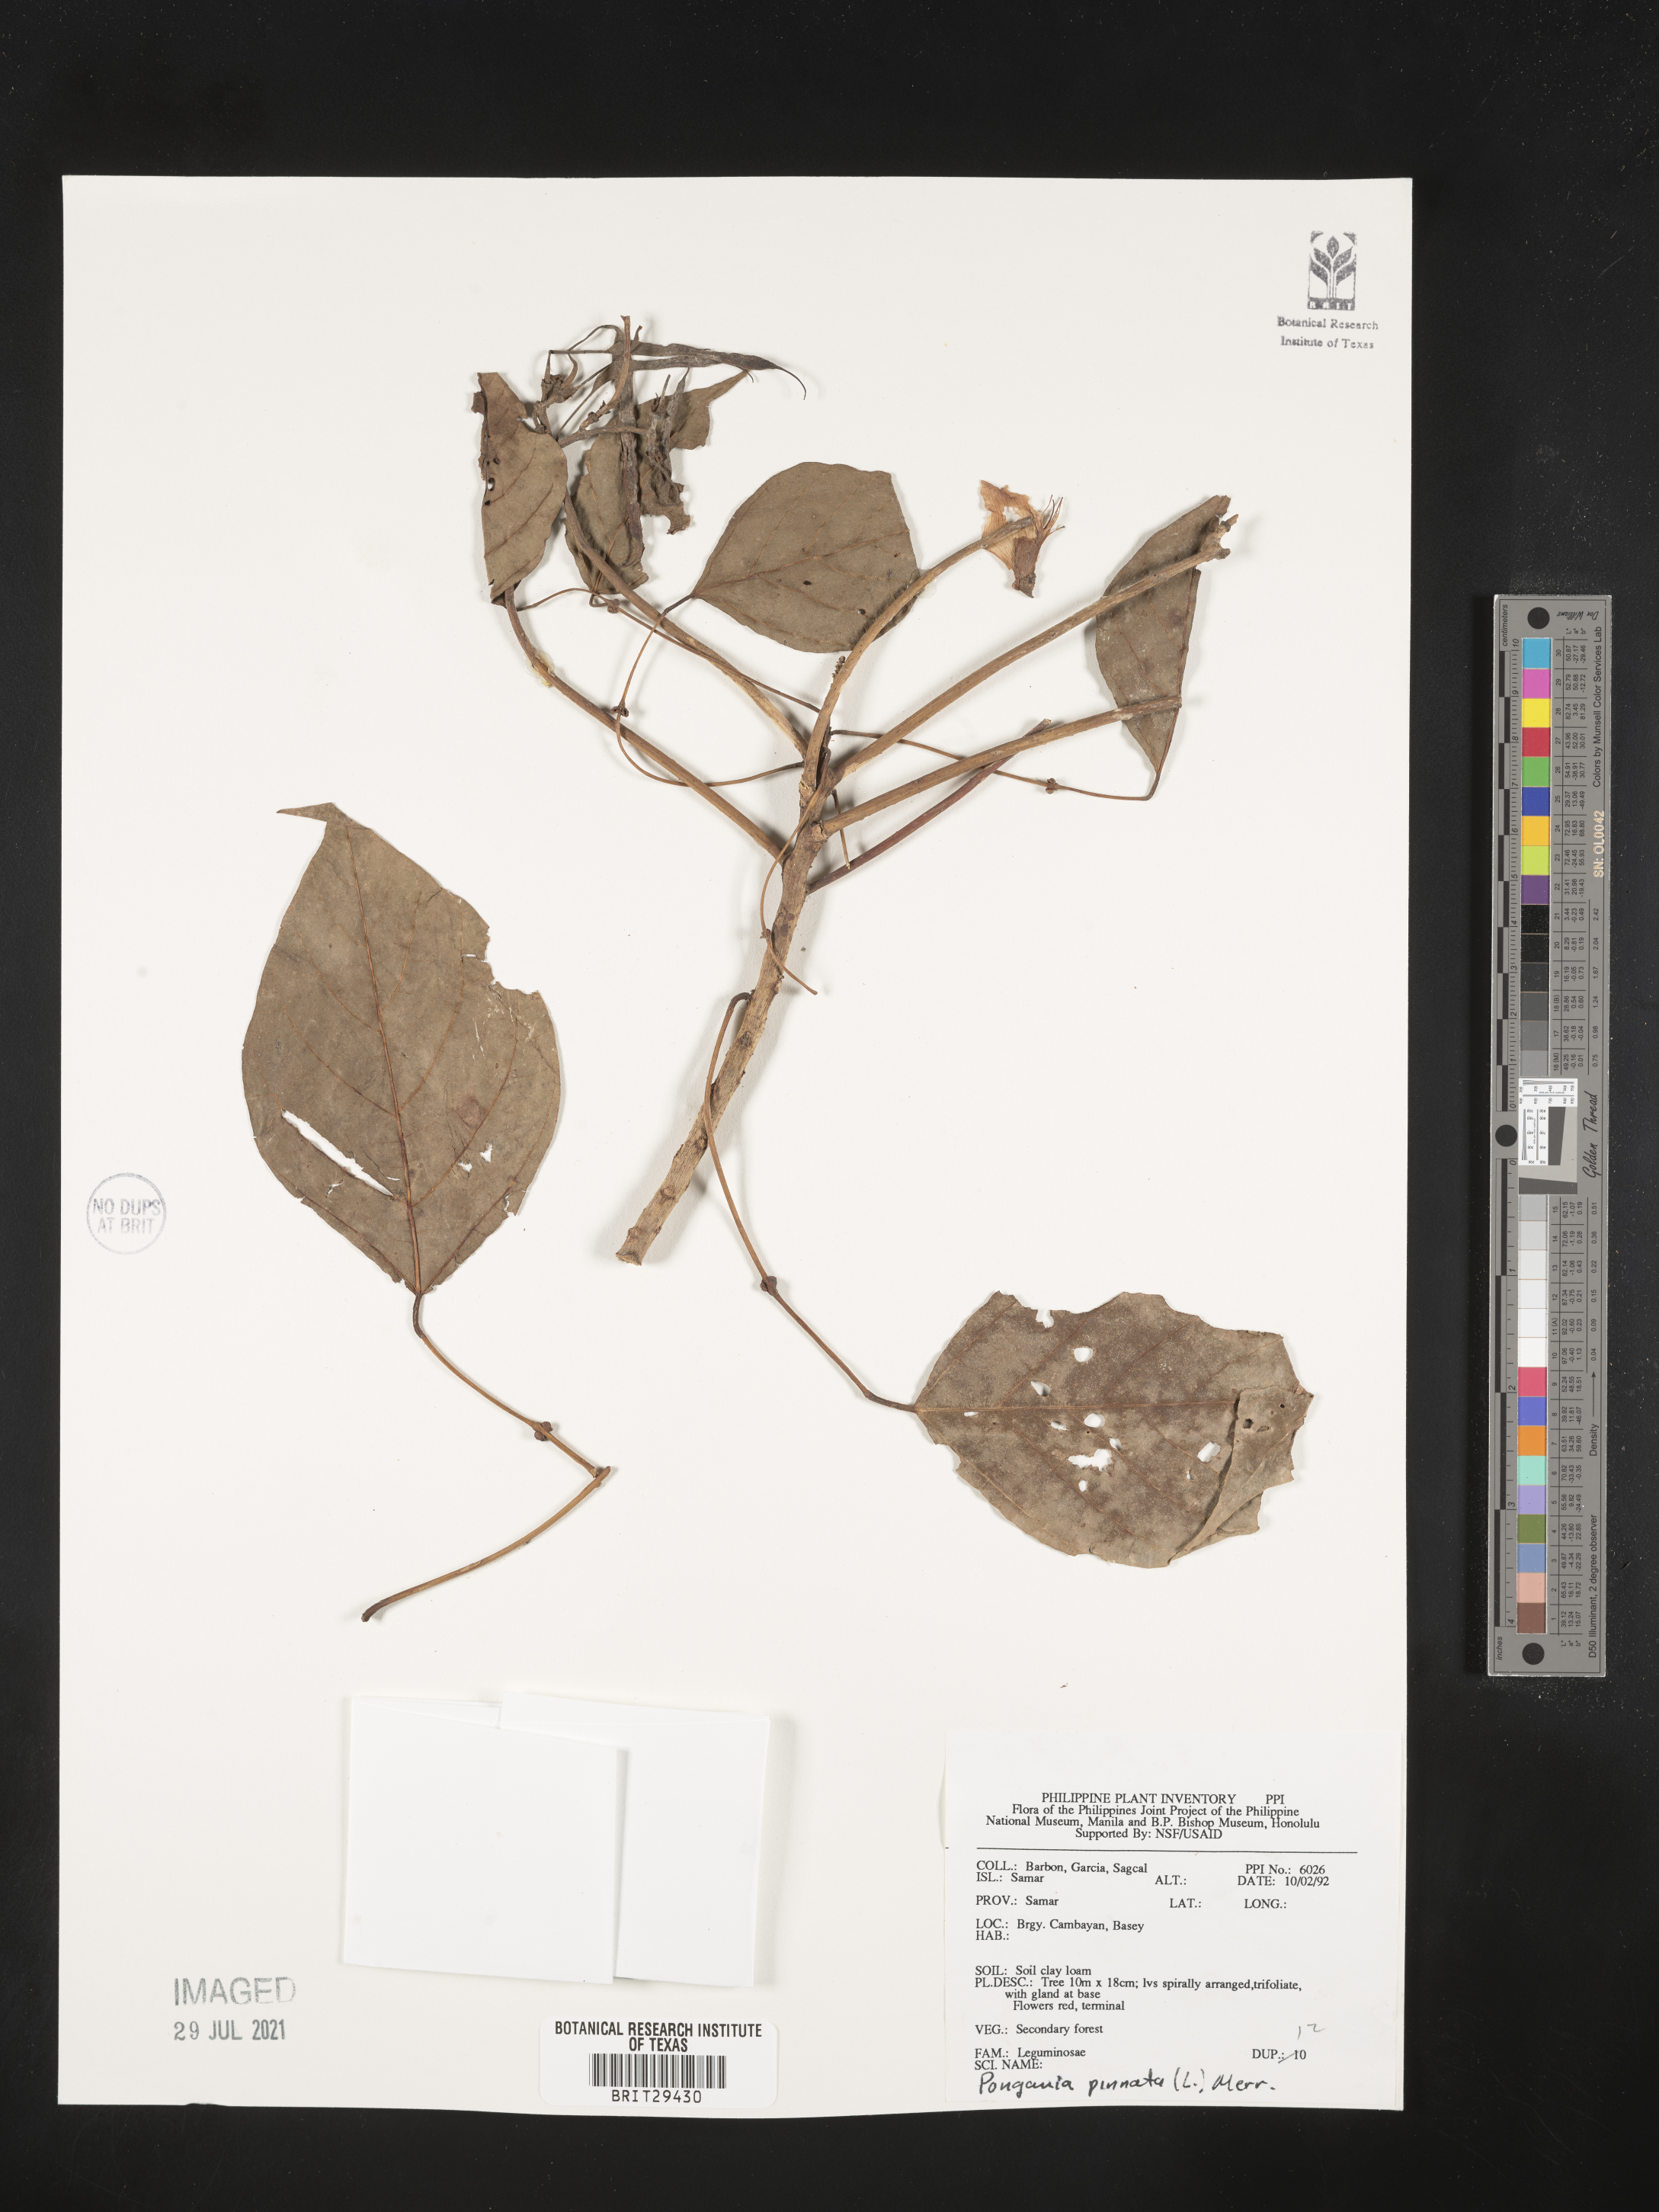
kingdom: Plantae
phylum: Tracheophyta
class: Magnoliopsida
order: Fabales
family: Fabaceae
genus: Pongamia
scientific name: Pongamia pinnata
